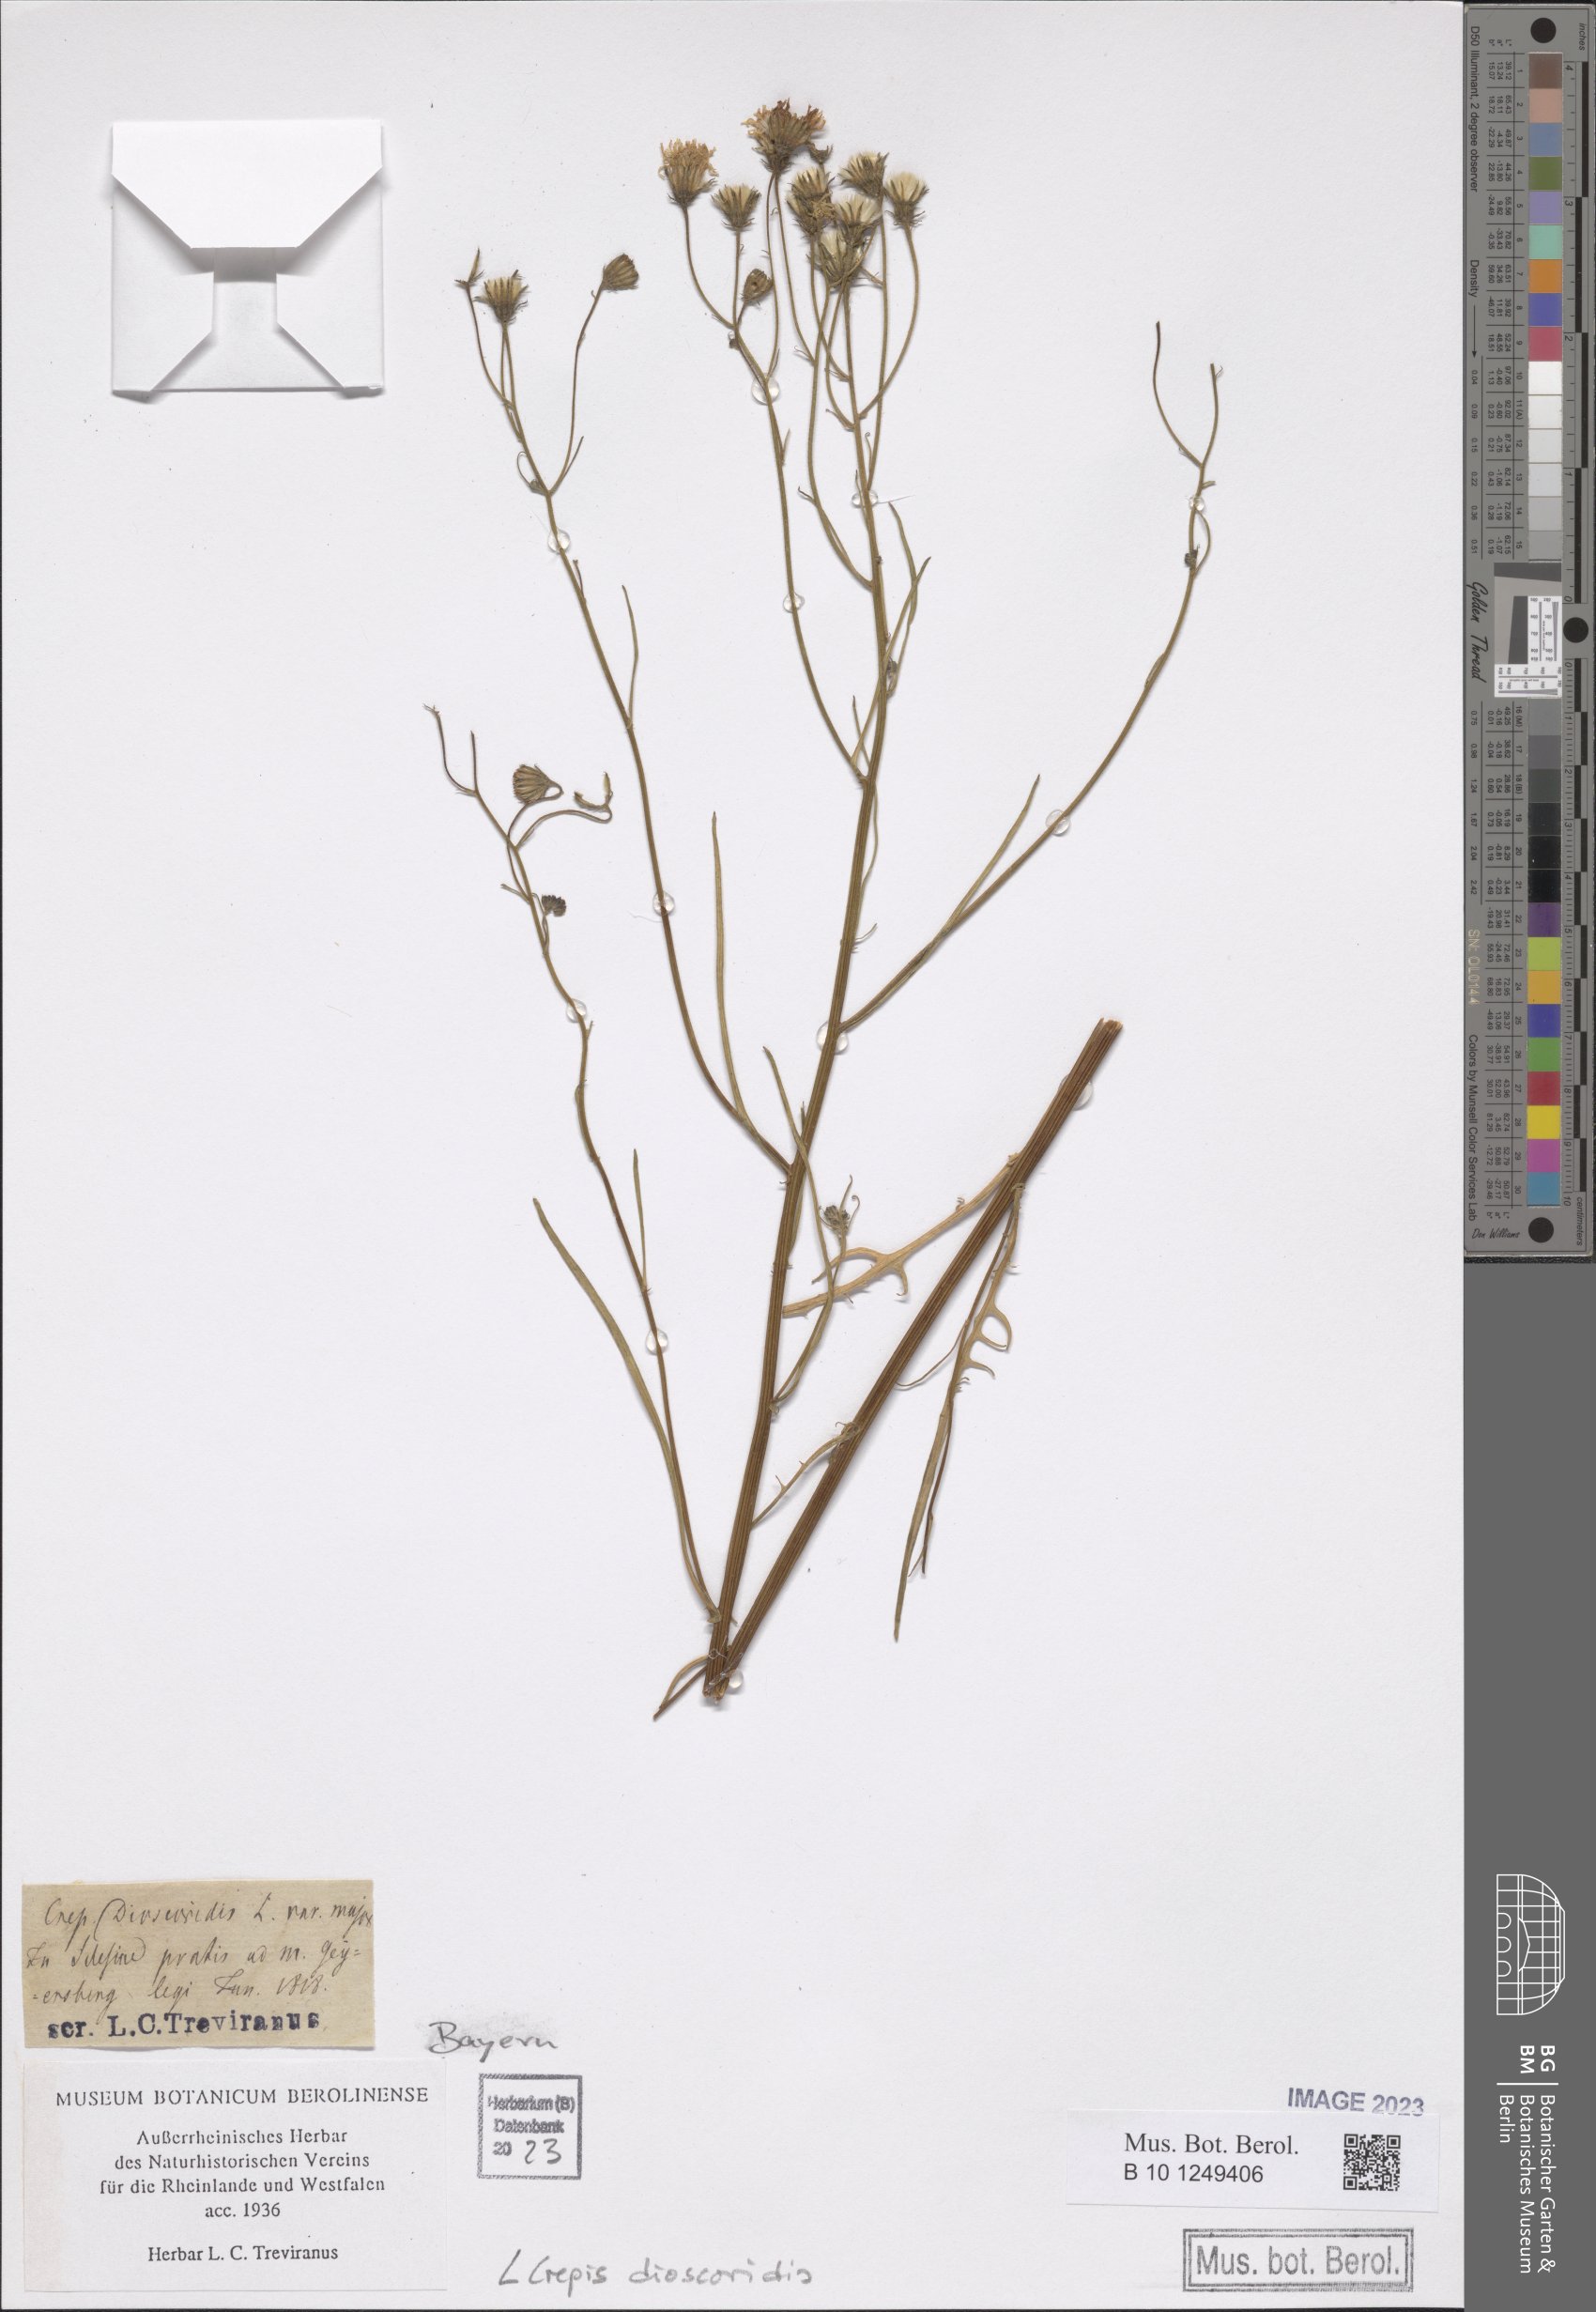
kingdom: Plantae
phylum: Tracheophyta
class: Magnoliopsida
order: Asterales
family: Asteraceae
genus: Crepis
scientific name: Crepis dioscoridis
